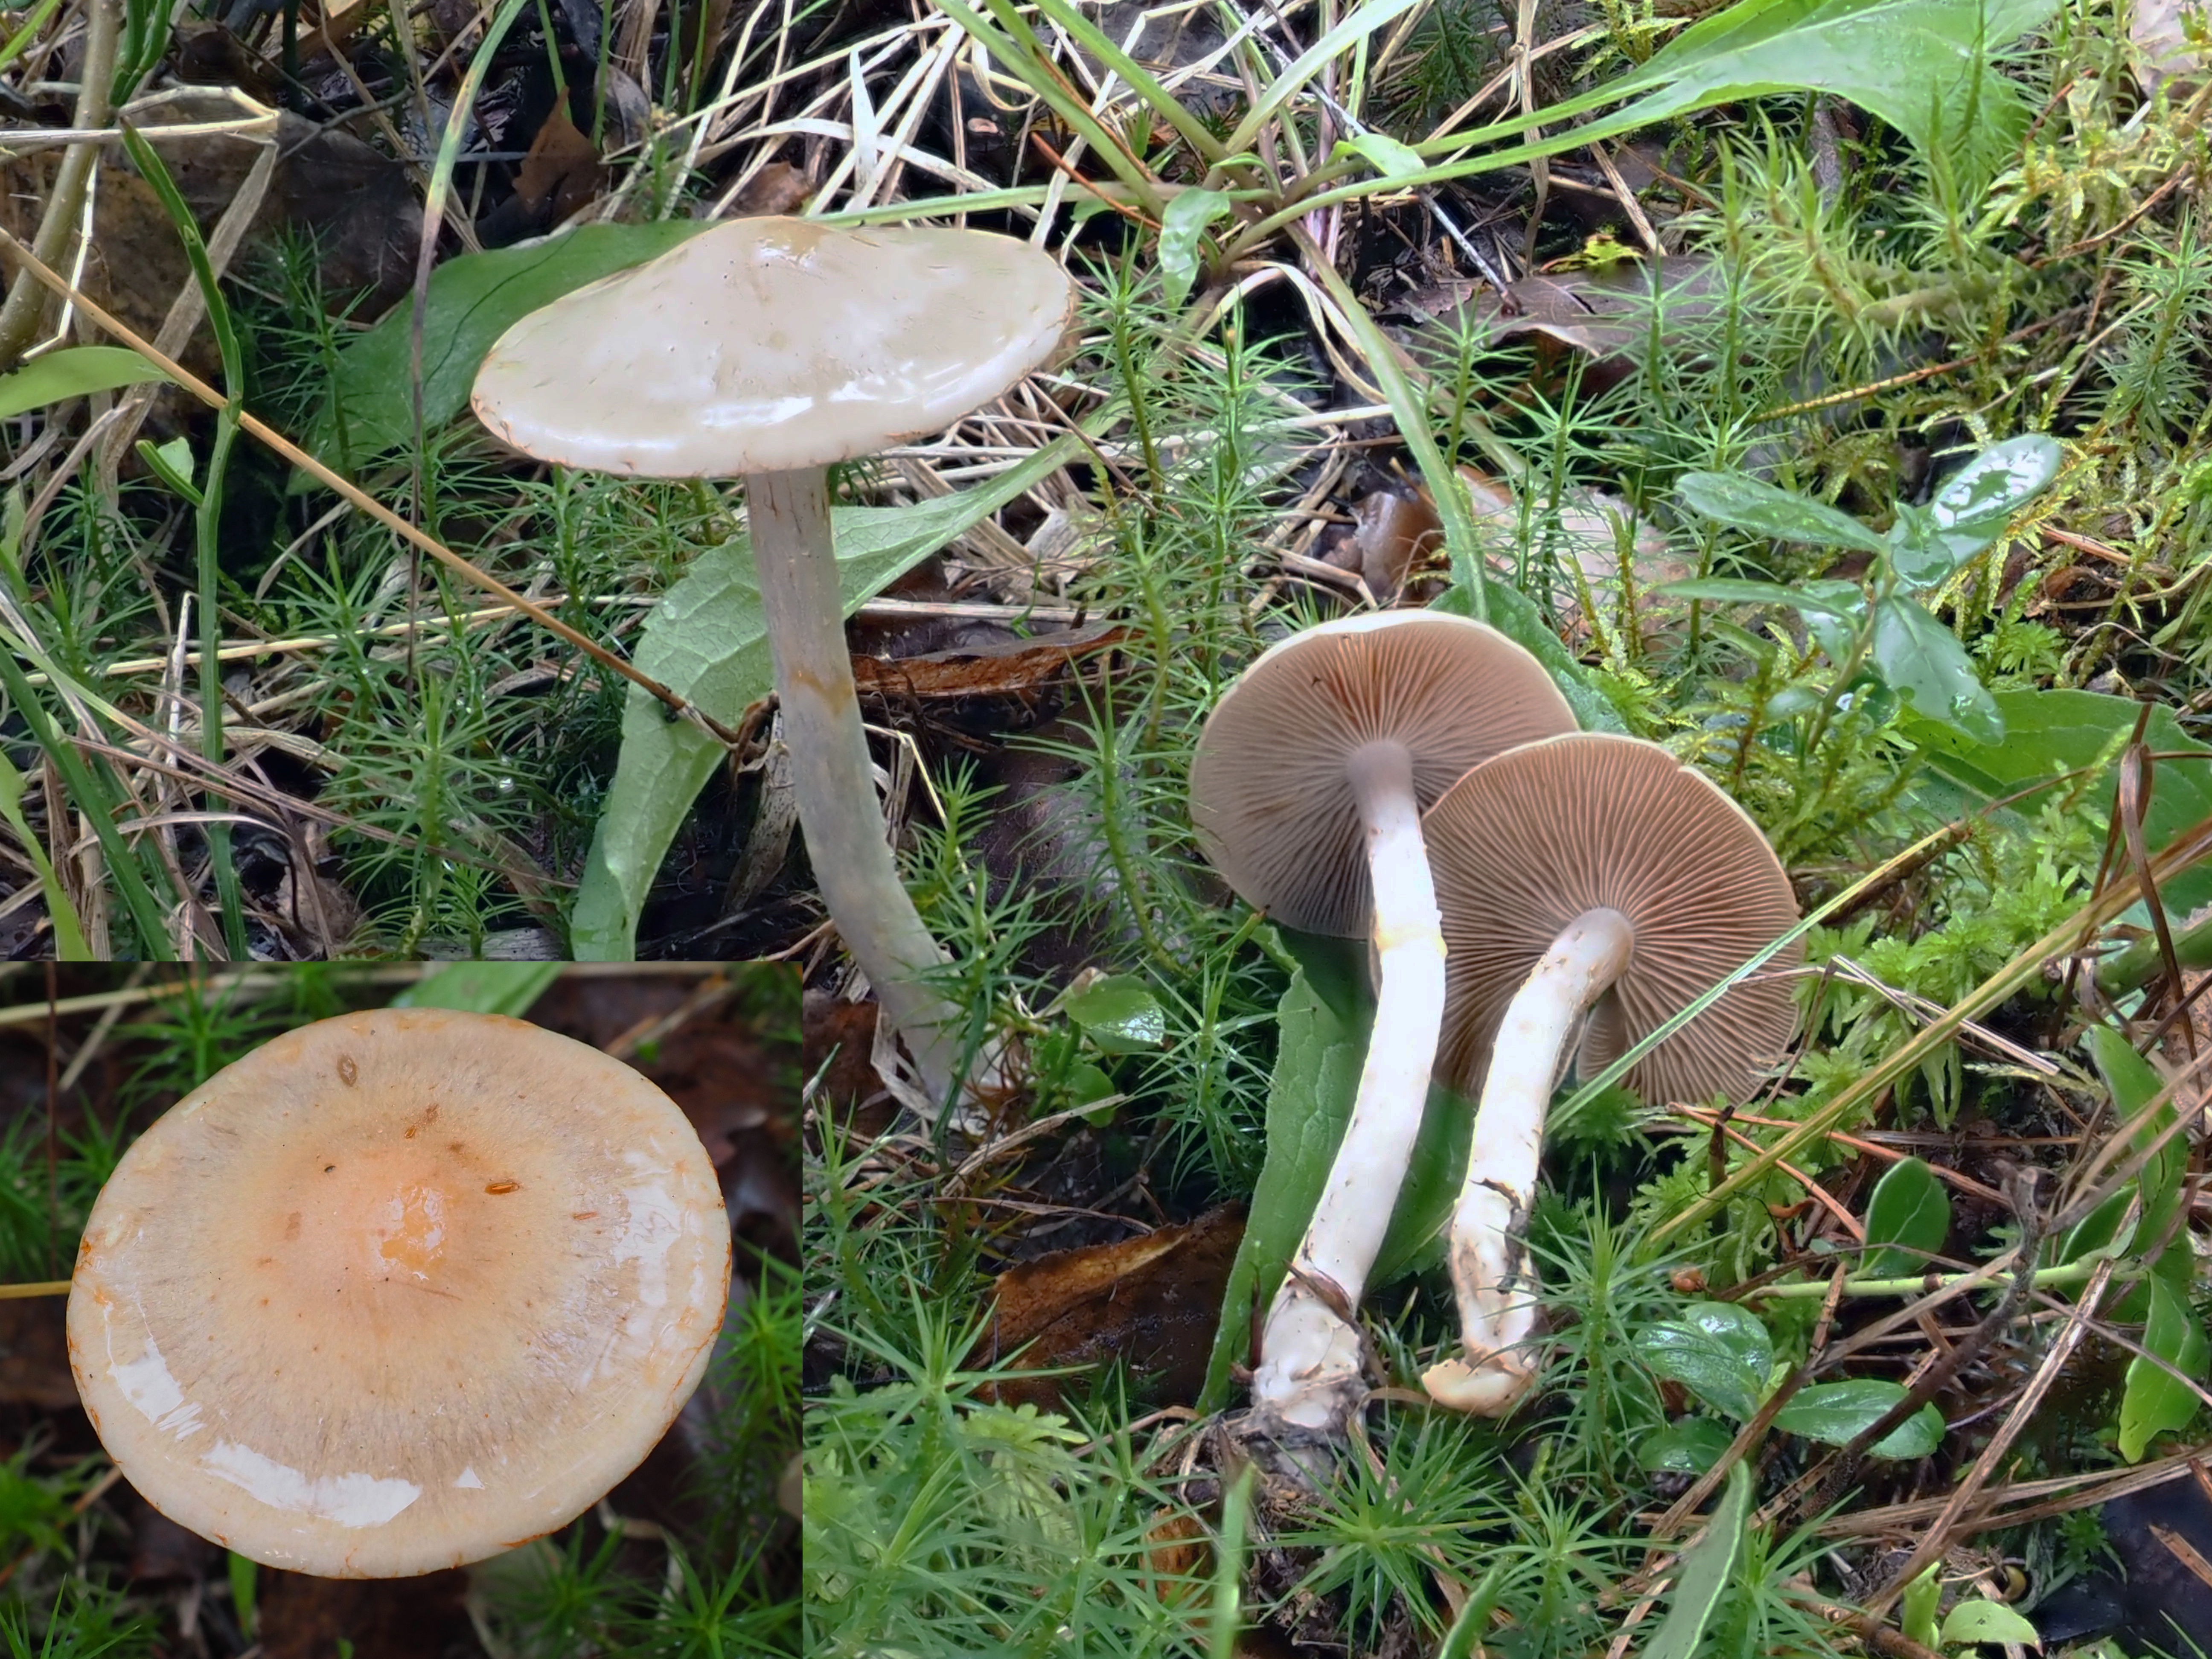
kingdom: Fungi
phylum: Basidiomycota
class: Agaricomycetes
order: Agaricales
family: Cortinariaceae
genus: Cortinarius
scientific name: Cortinarius lucorum
